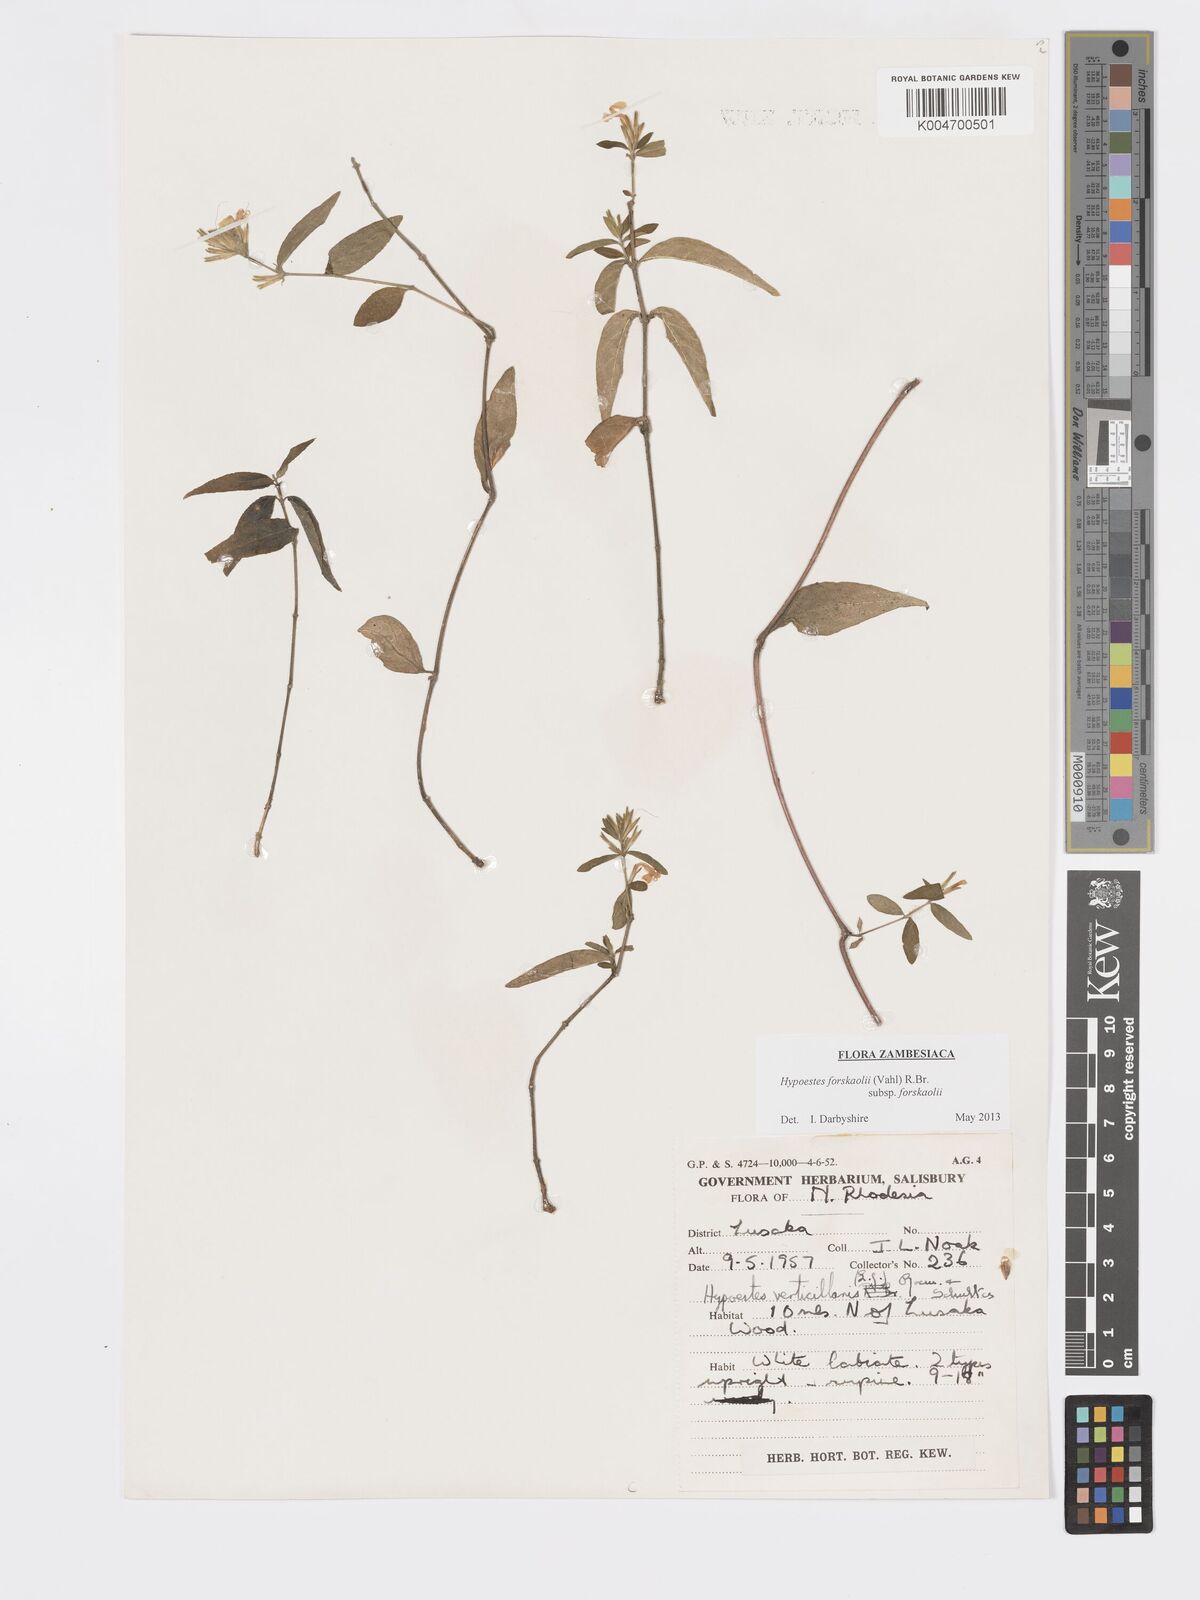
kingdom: Plantae
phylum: Tracheophyta
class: Magnoliopsida
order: Lamiales
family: Acanthaceae
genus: Hypoestes
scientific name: Hypoestes forskaolii
